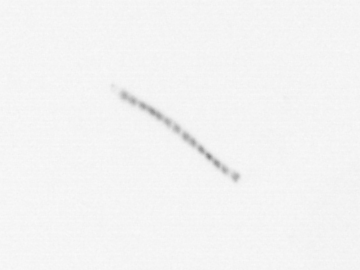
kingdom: Chromista
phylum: Ochrophyta
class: Bacillariophyceae
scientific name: Bacillariophyceae
